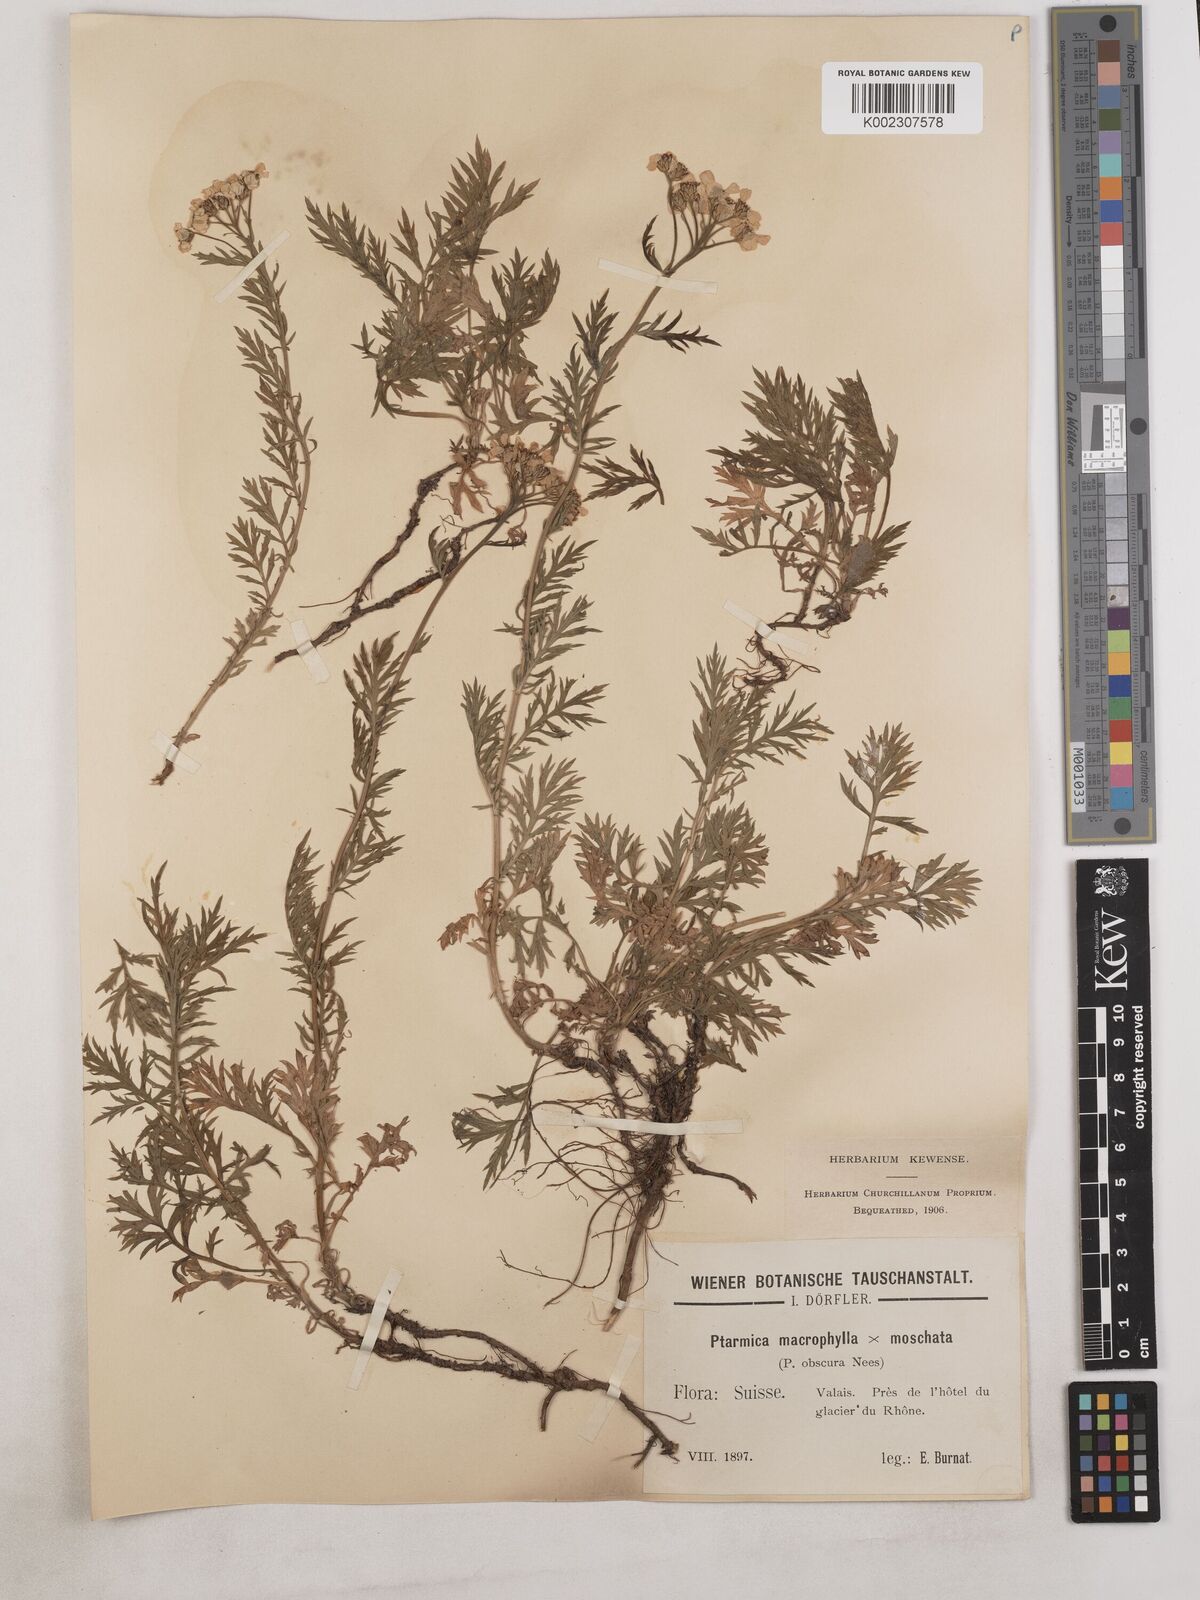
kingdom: Plantae
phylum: Tracheophyta
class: Magnoliopsida
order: Asterales
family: Asteraceae
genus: Achillea
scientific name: Achillea valesiaca
